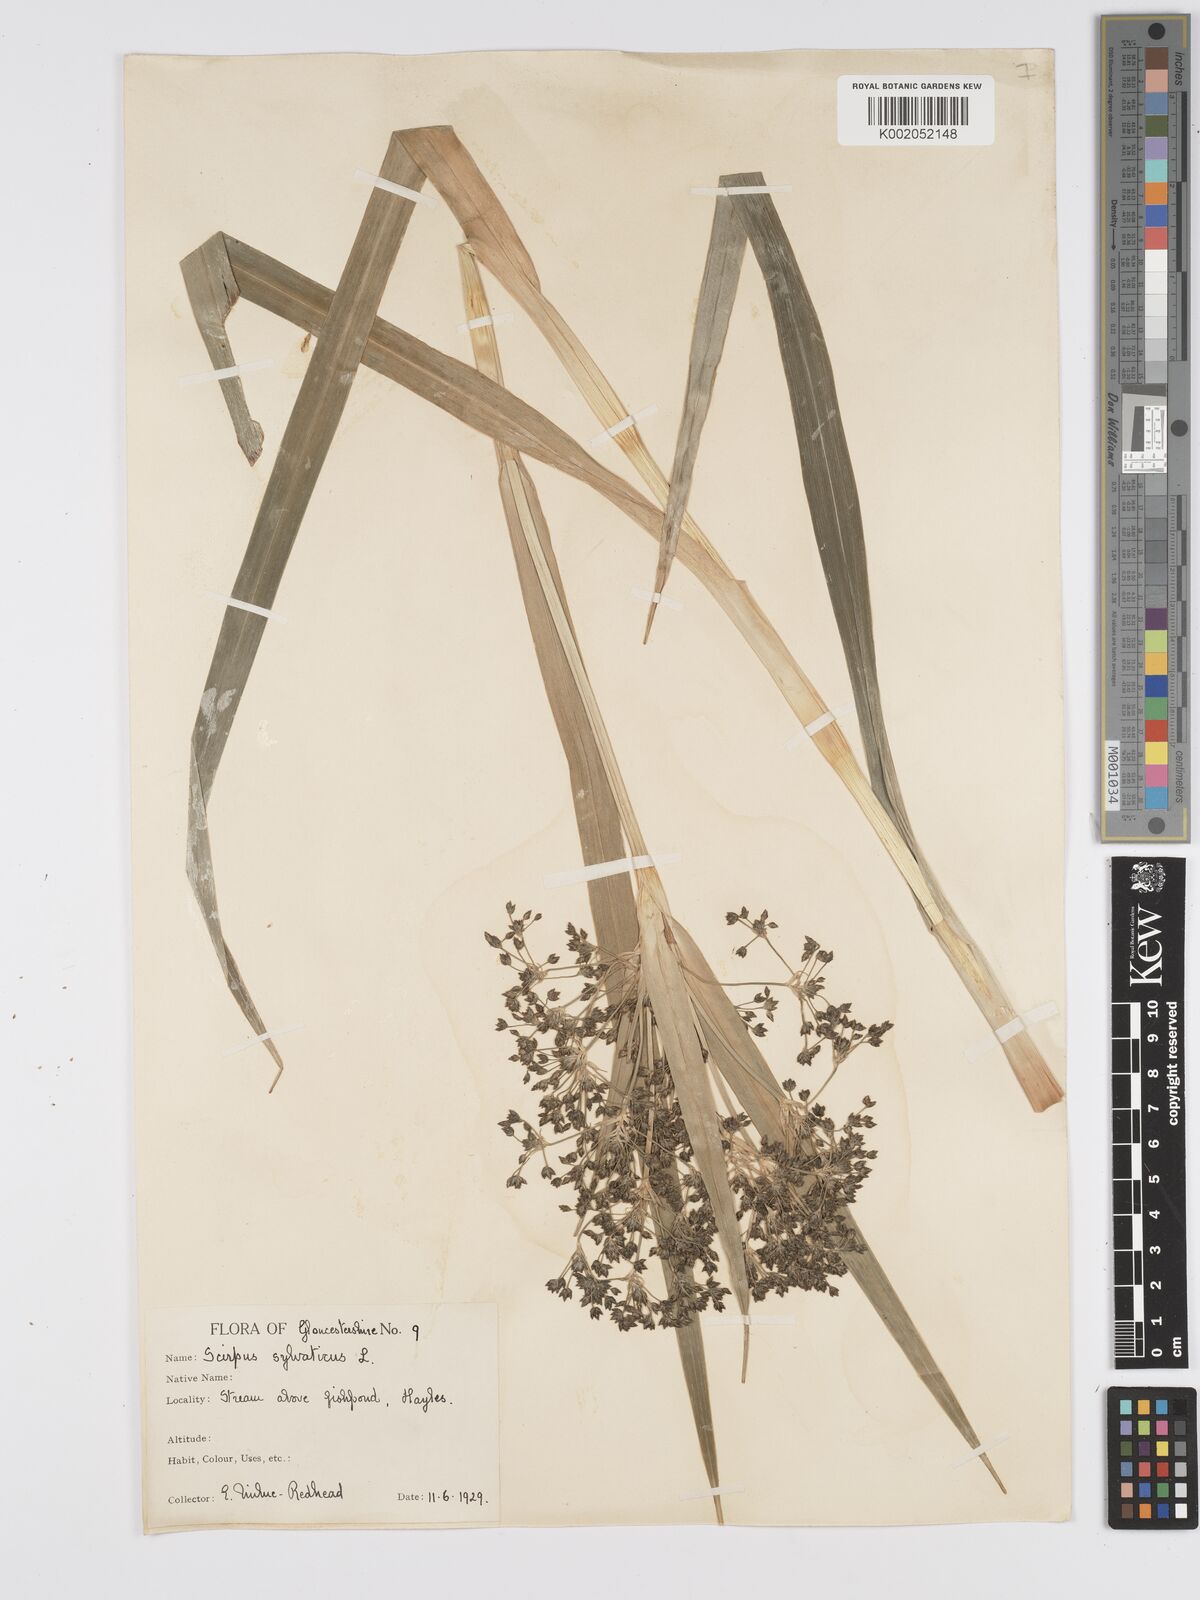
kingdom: Plantae
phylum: Tracheophyta
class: Liliopsida
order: Poales
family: Cyperaceae
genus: Scirpus
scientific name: Scirpus sylvaticus
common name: Wood club-rush
